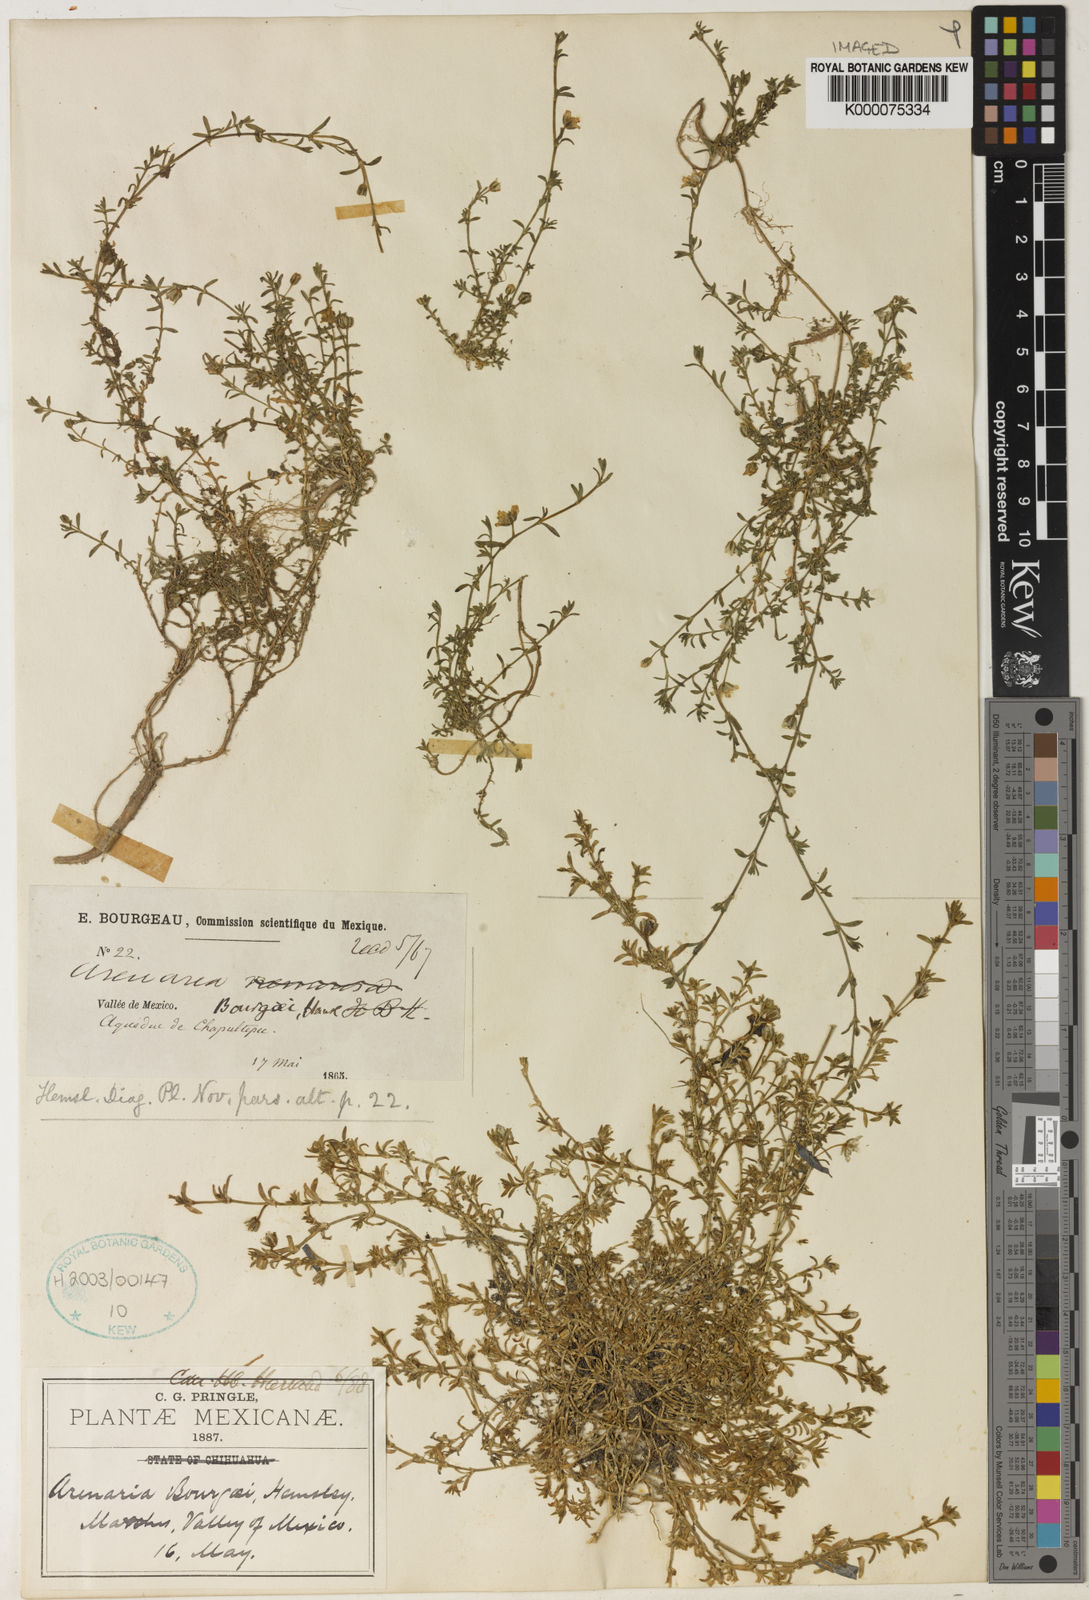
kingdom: Plantae
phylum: Tracheophyta
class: Magnoliopsida
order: Caryophyllales
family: Caryophyllaceae
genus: Arenaria
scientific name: Arenaria bourgaei
